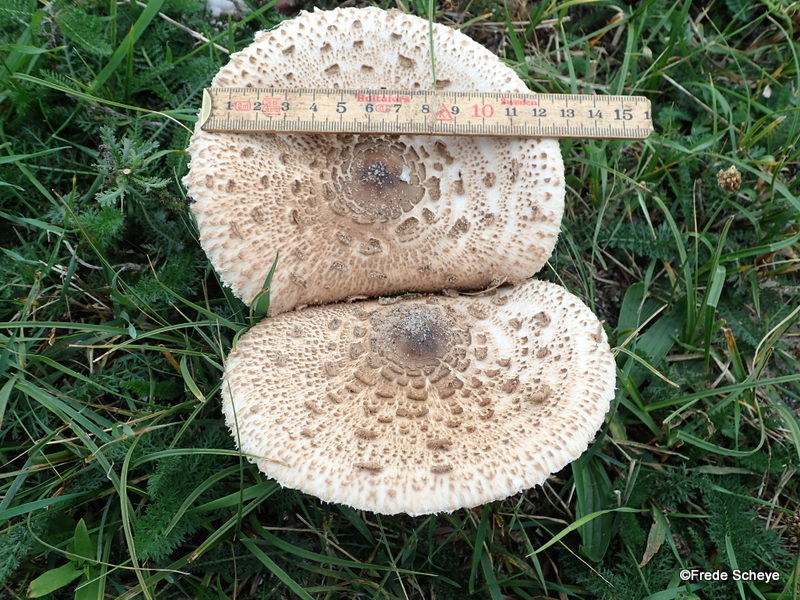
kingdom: Fungi
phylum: Basidiomycota
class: Agaricomycetes
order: Agaricales
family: Agaricaceae
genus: Macrolepiota
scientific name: Macrolepiota procera
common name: stor kæmpeparasolhat
